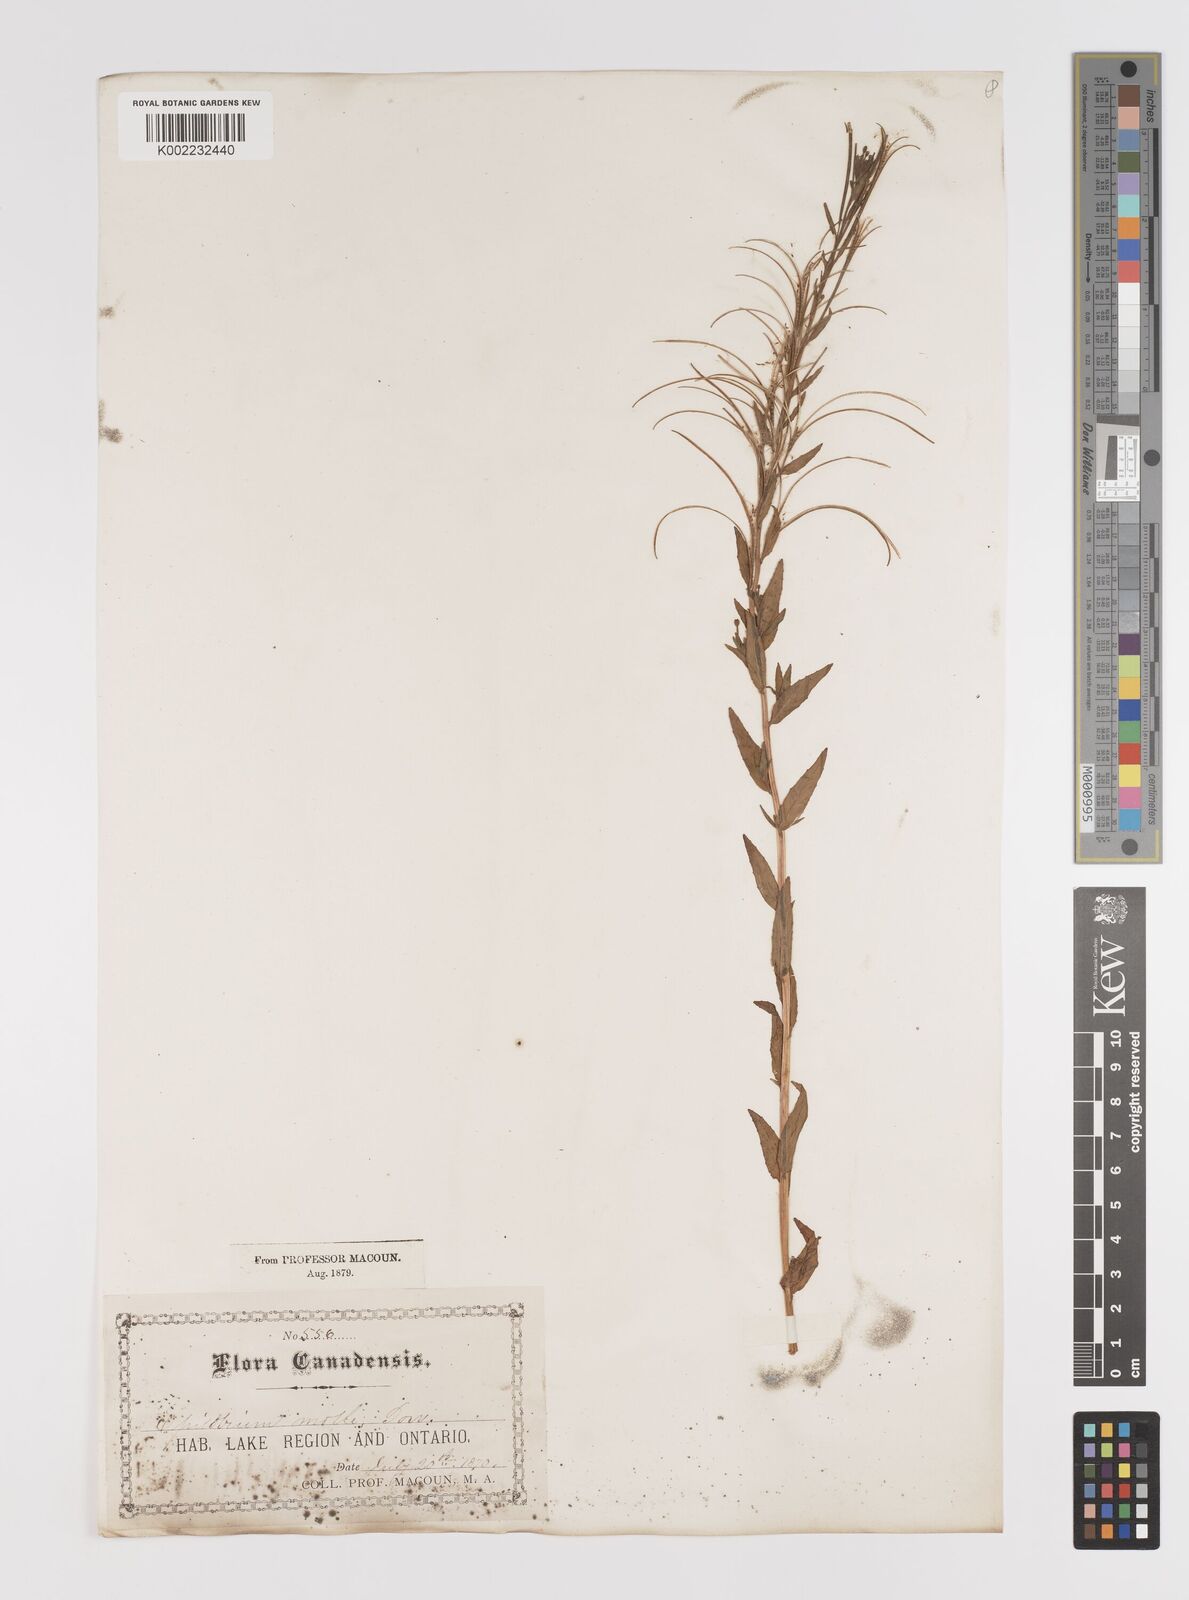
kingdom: Plantae
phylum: Tracheophyta
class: Magnoliopsida
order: Myrtales
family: Onagraceae
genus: Epilobium
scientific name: Epilobium densum
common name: Downy willowherb
